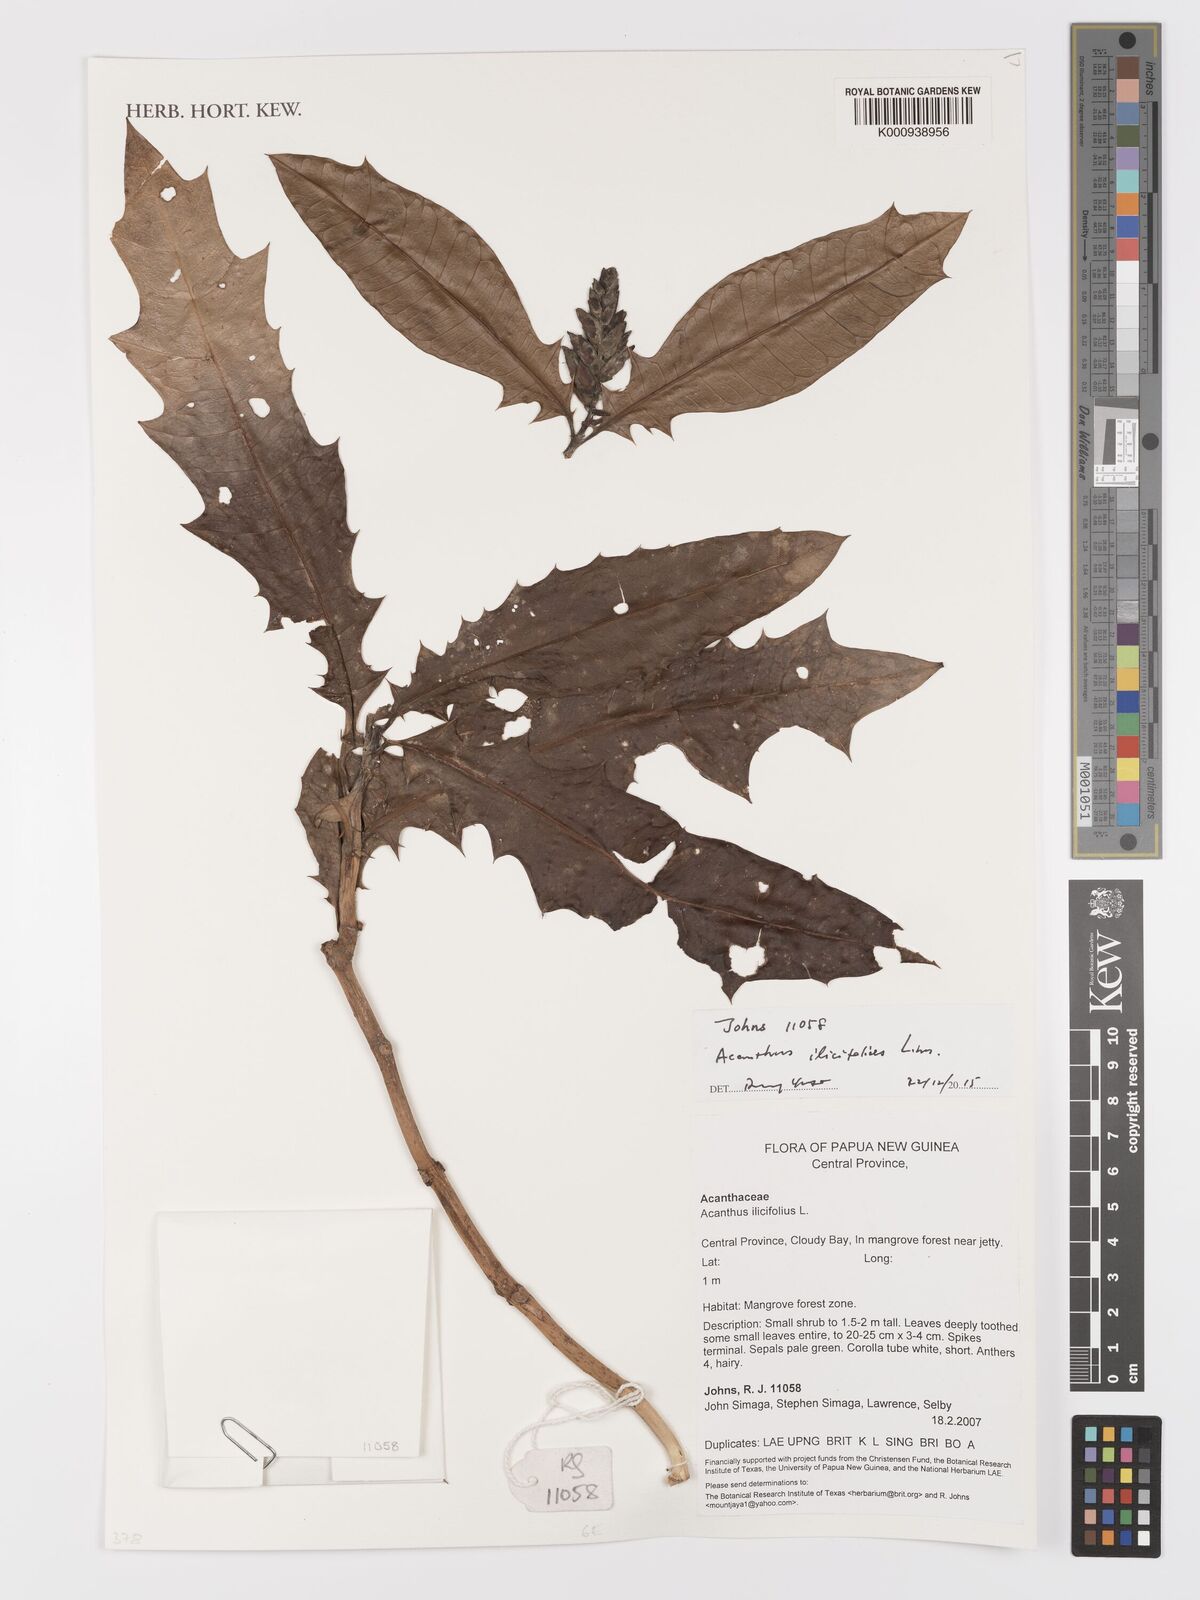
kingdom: Plantae
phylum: Tracheophyta
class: Magnoliopsida
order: Lamiales
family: Acanthaceae
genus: Acanthus
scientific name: Acanthus ilicifolius
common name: Holy mangrove
